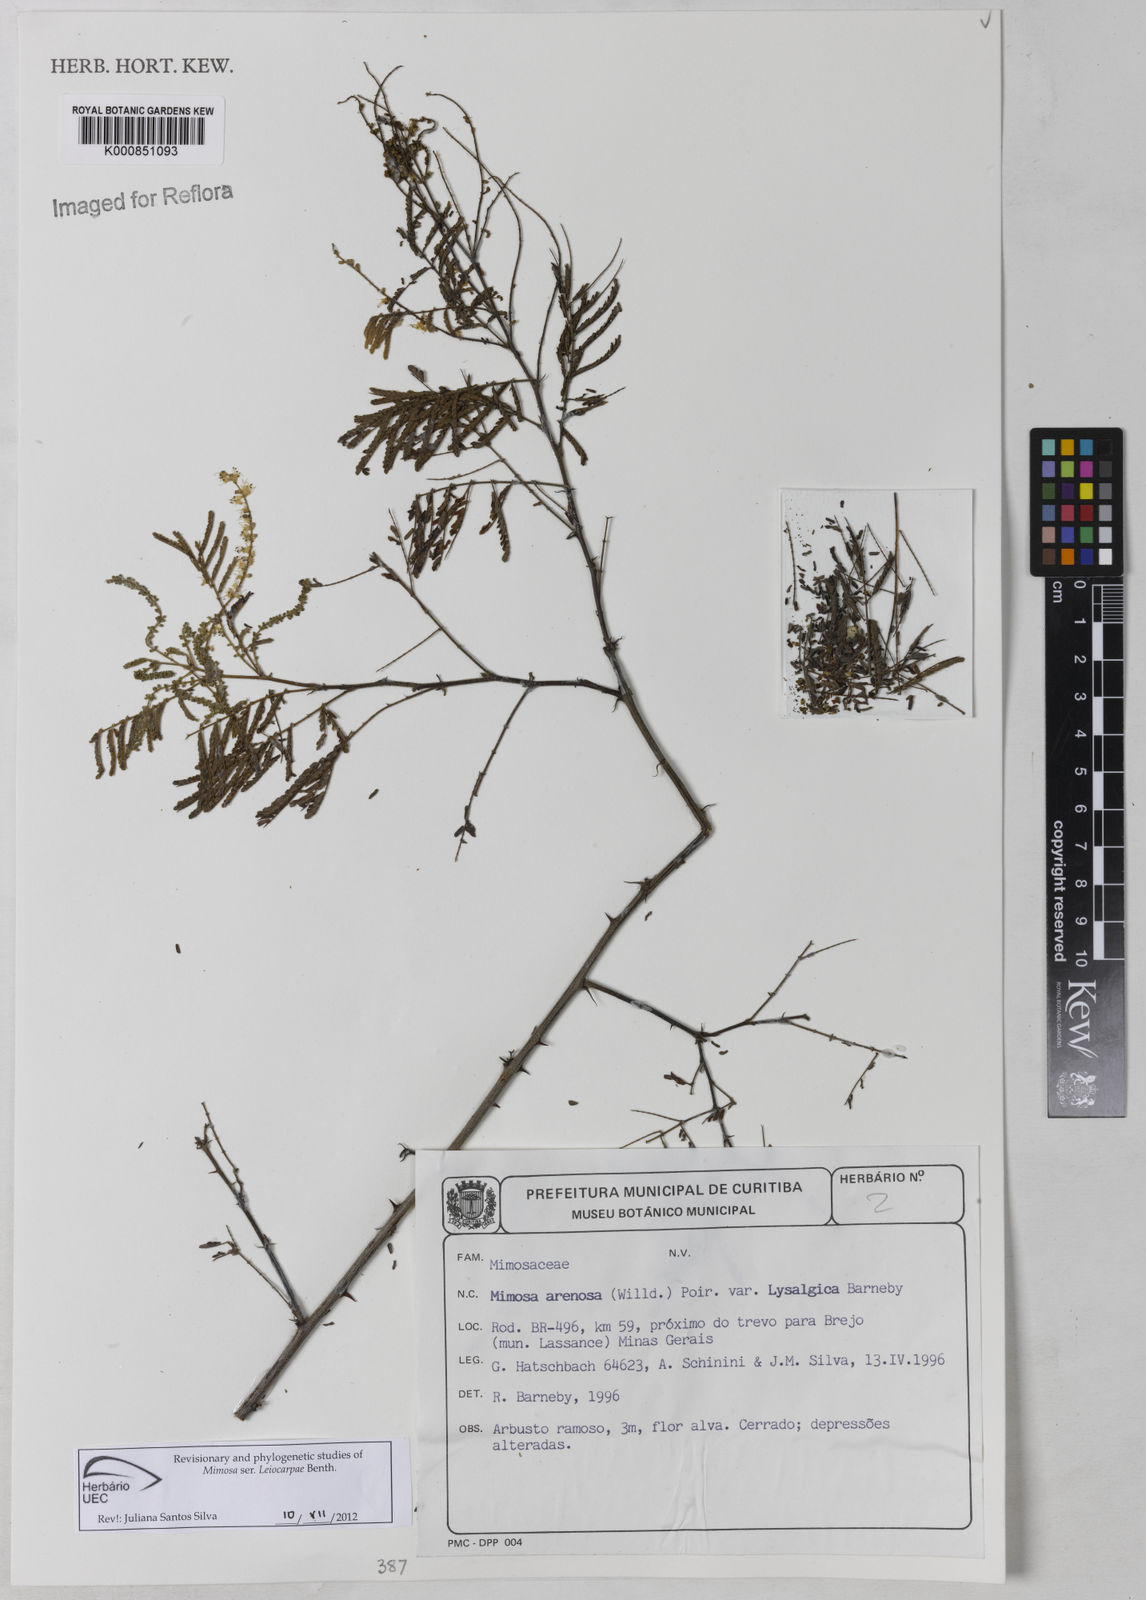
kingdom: Plantae
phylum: Tracheophyta
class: Magnoliopsida
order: Fabales
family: Fabaceae
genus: Mimosa
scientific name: Mimosa arenosa
